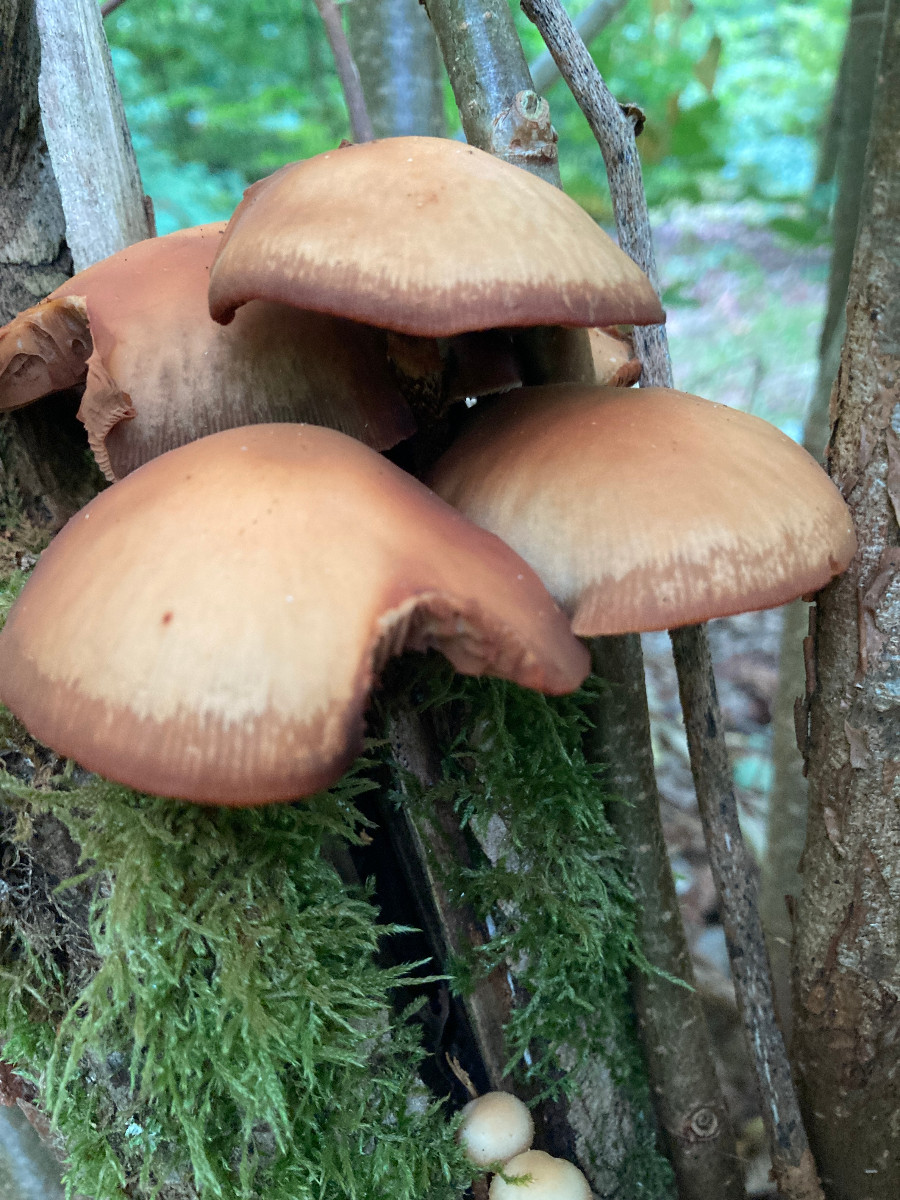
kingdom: Fungi
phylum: Basidiomycota
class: Agaricomycetes
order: Agaricales
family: Strophariaceae
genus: Kuehneromyces
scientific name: Kuehneromyces mutabilis
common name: foranderlig skælhat
